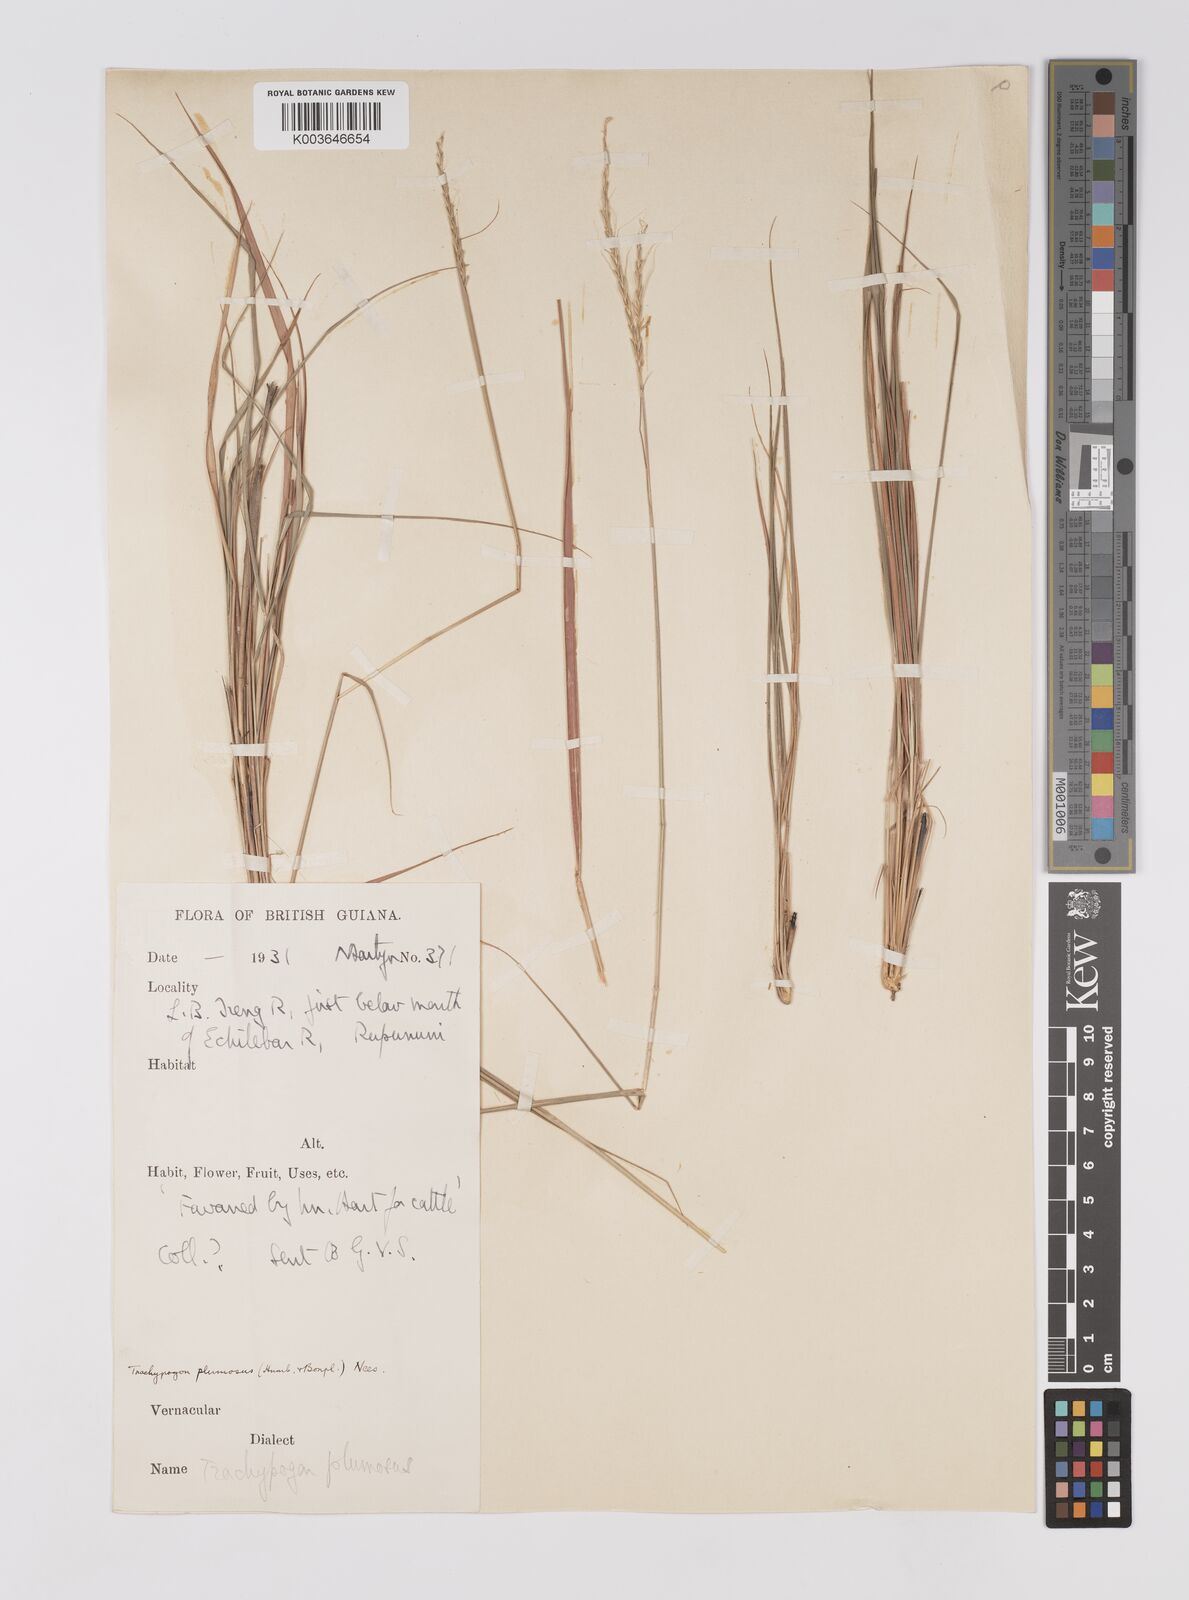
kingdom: Plantae
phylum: Tracheophyta
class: Liliopsida
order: Poales
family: Poaceae
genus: Trachypogon
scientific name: Trachypogon spicatus
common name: Crinkle-awn
